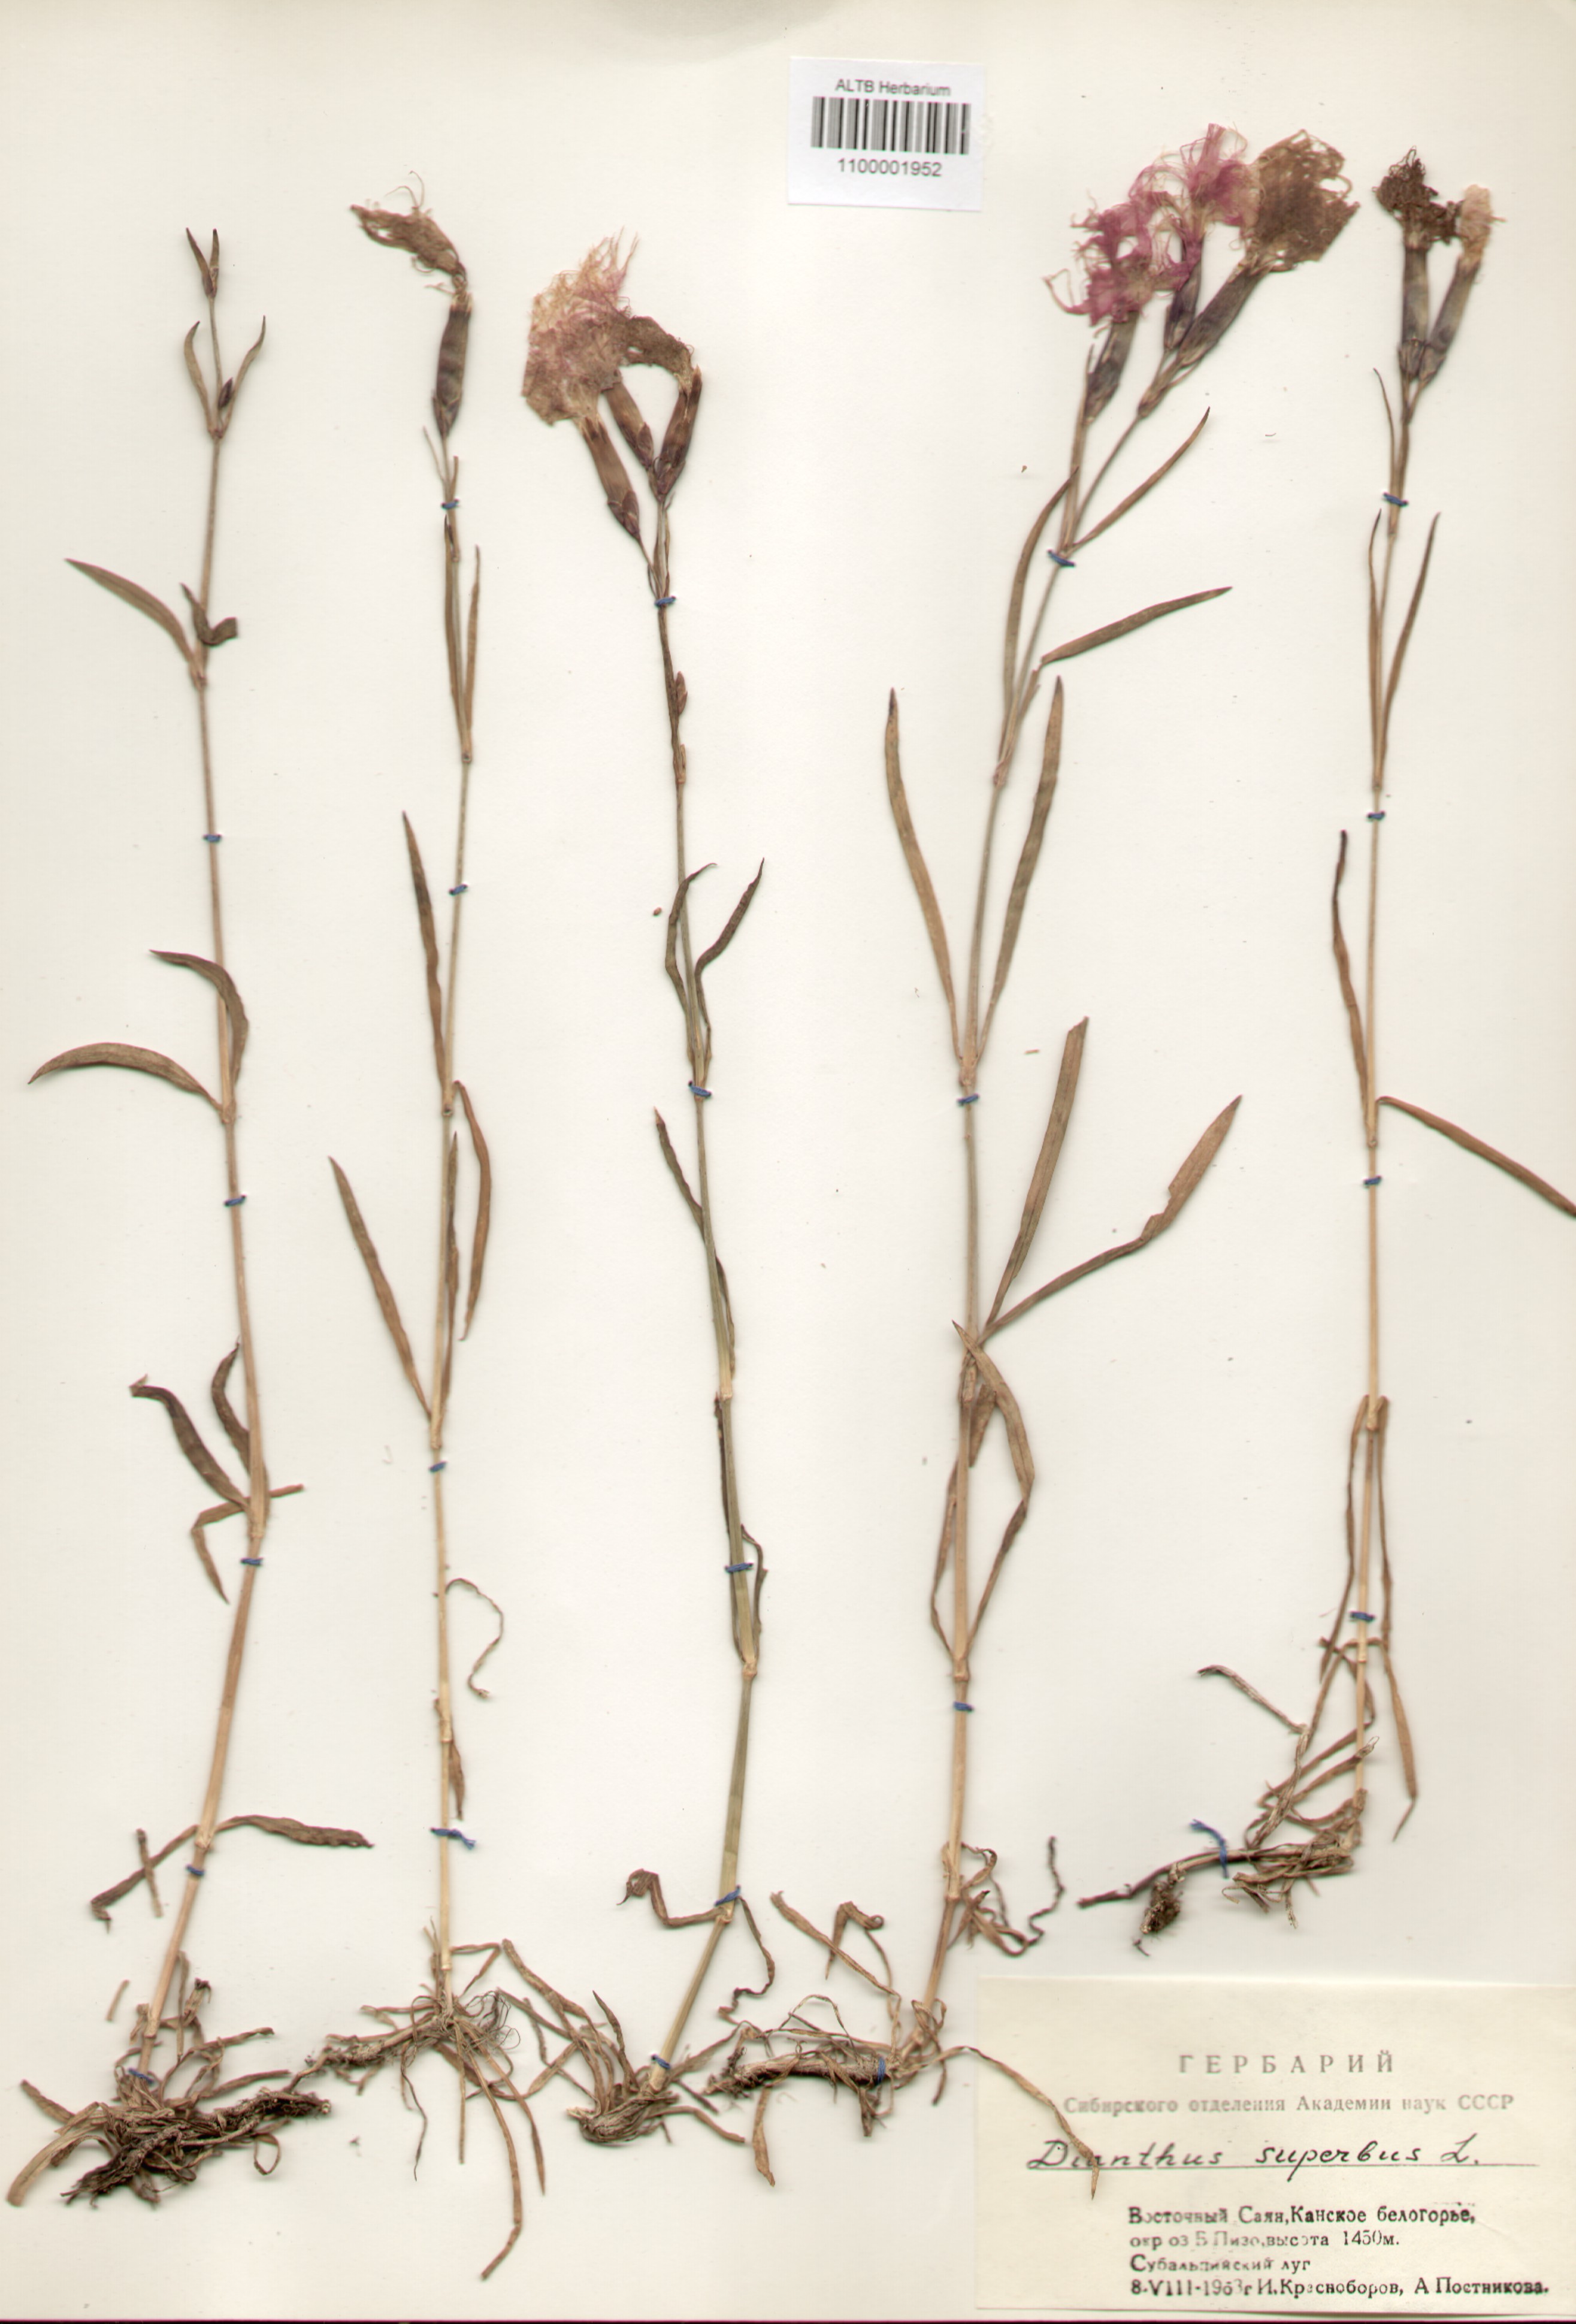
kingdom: Plantae
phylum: Tracheophyta
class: Magnoliopsida
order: Caryophyllales
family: Caryophyllaceae
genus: Dianthus
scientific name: Dianthus superbus
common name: Fringed pink
